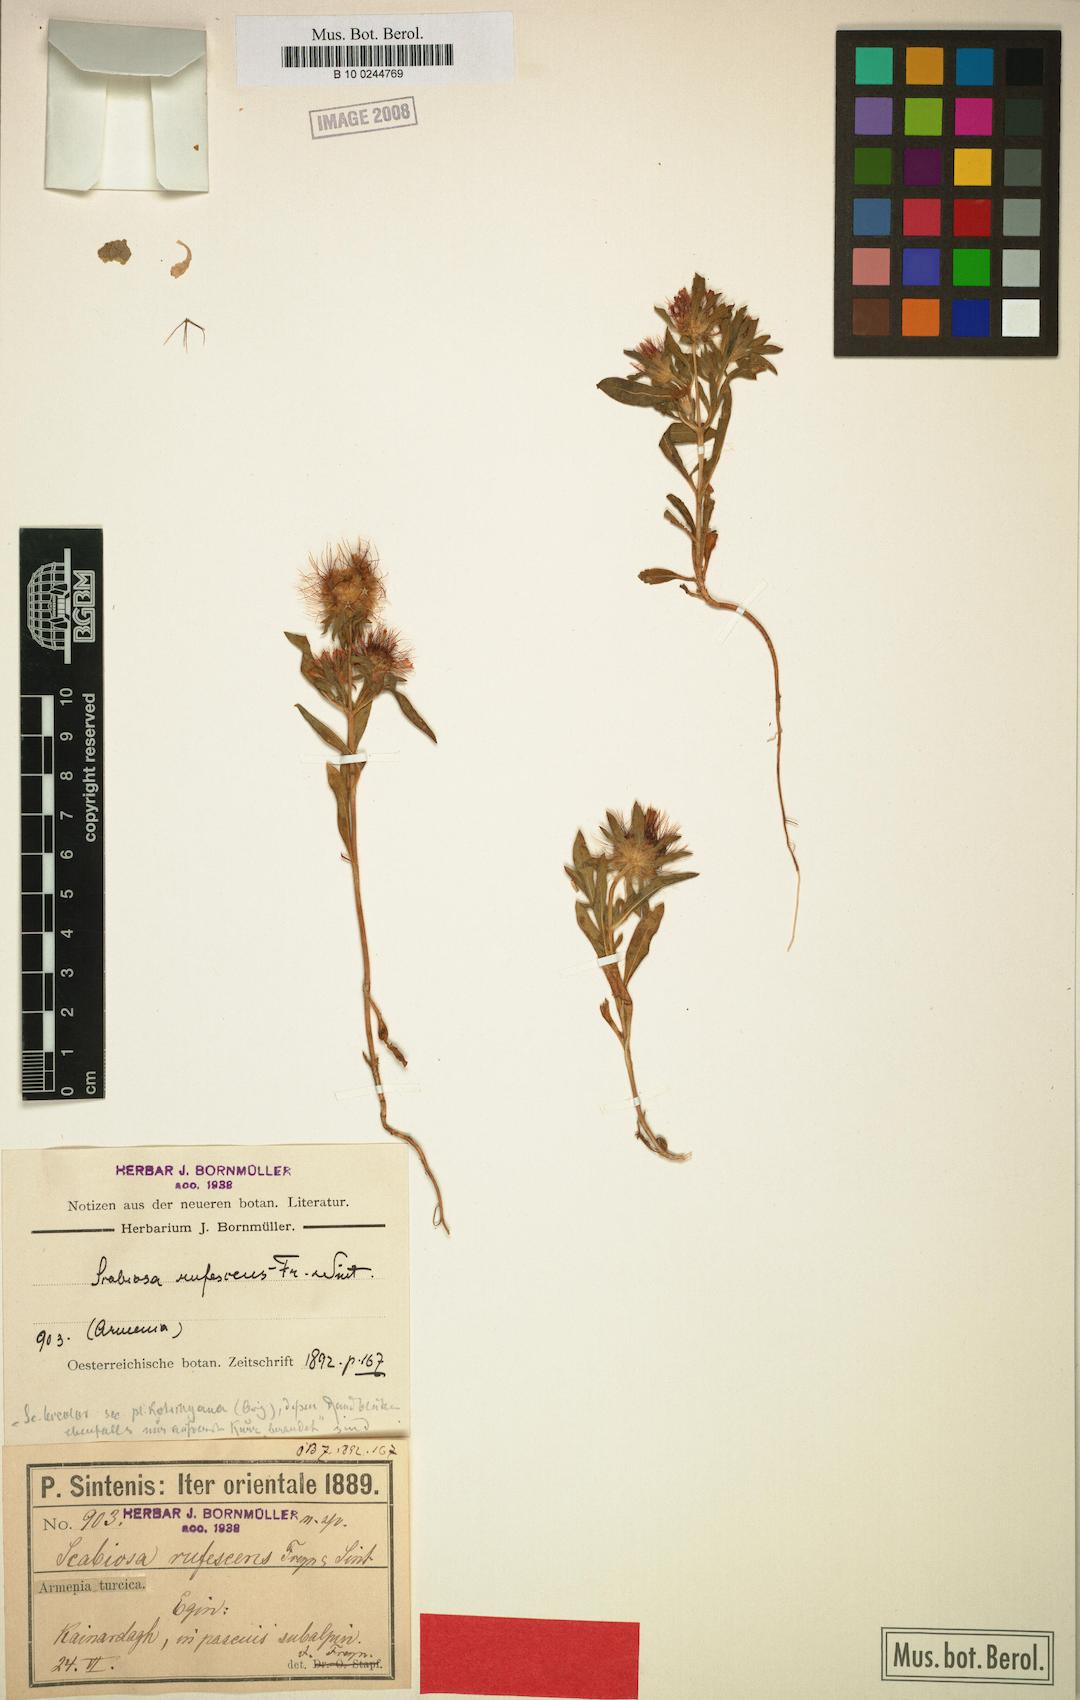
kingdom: Plantae
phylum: Tracheophyta
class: Magnoliopsida
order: Dipsacales
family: Caprifoliaceae
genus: Lomelosia
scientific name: Lomelosia bicolor
